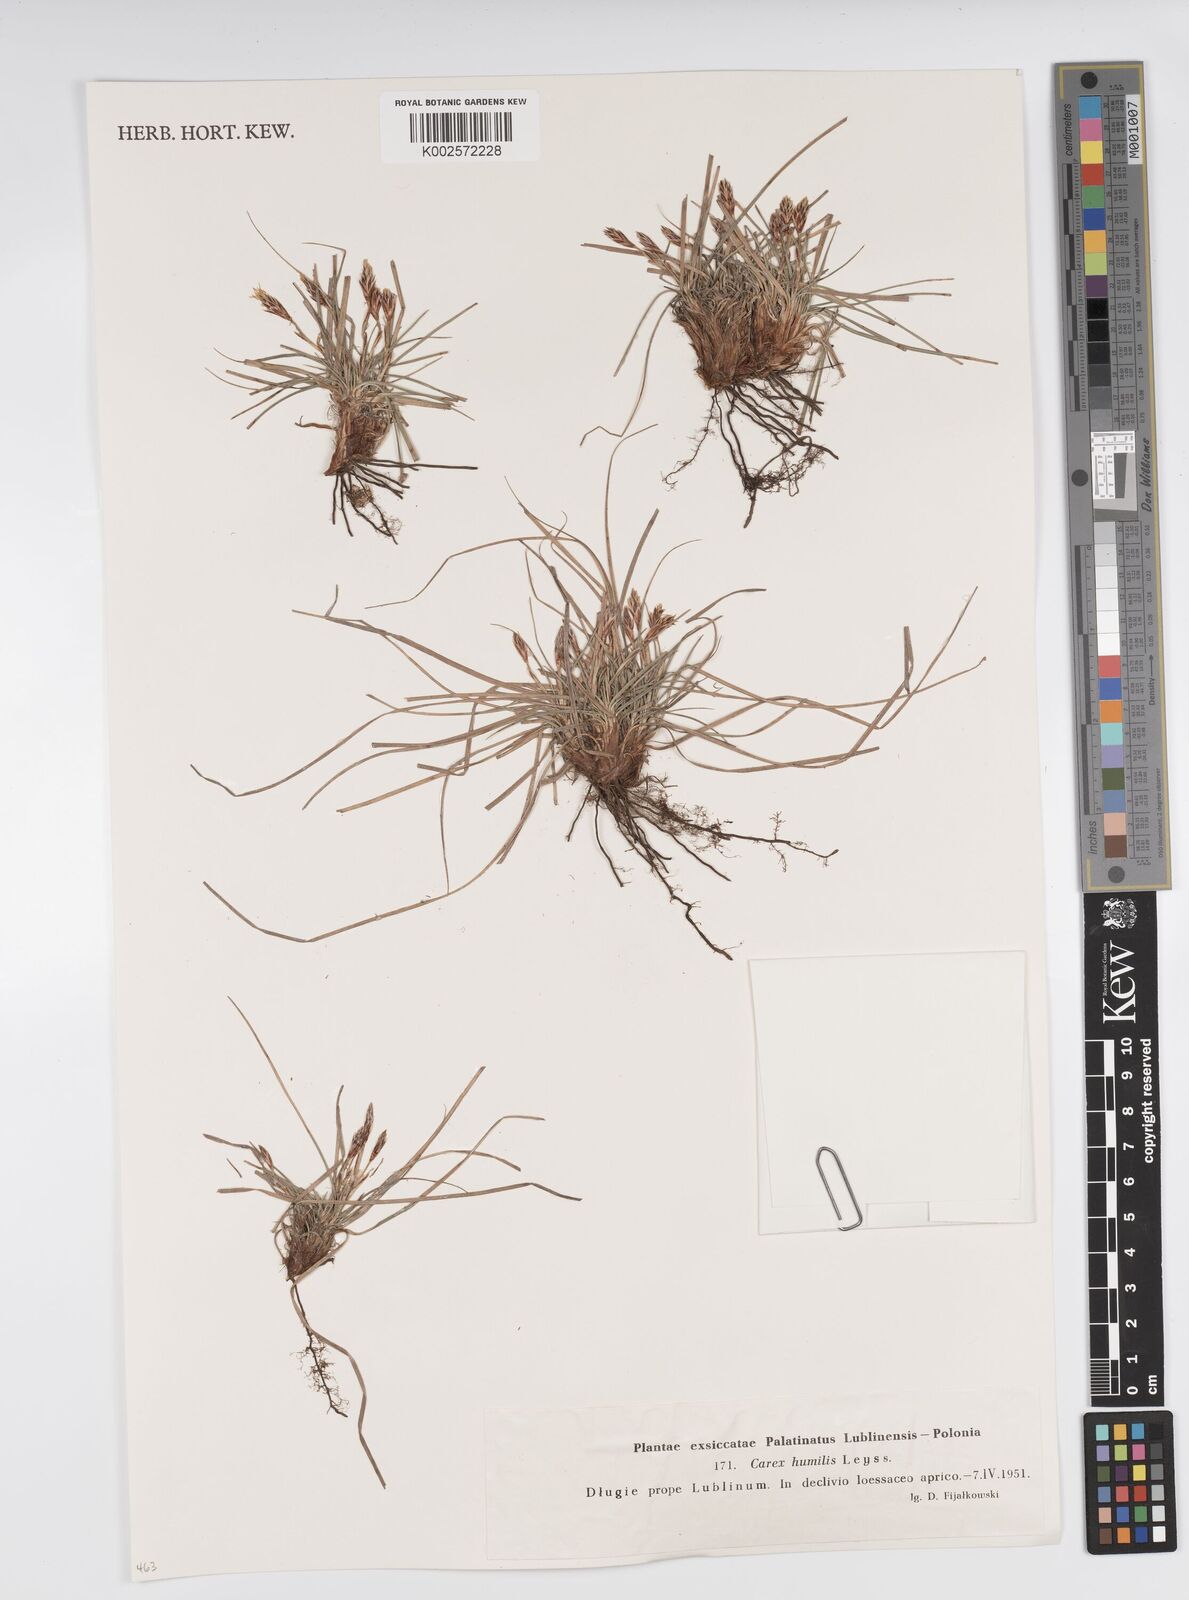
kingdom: Plantae
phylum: Tracheophyta
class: Liliopsida
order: Poales
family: Cyperaceae
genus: Carex
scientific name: Carex humilis
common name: Dwarf sedge
